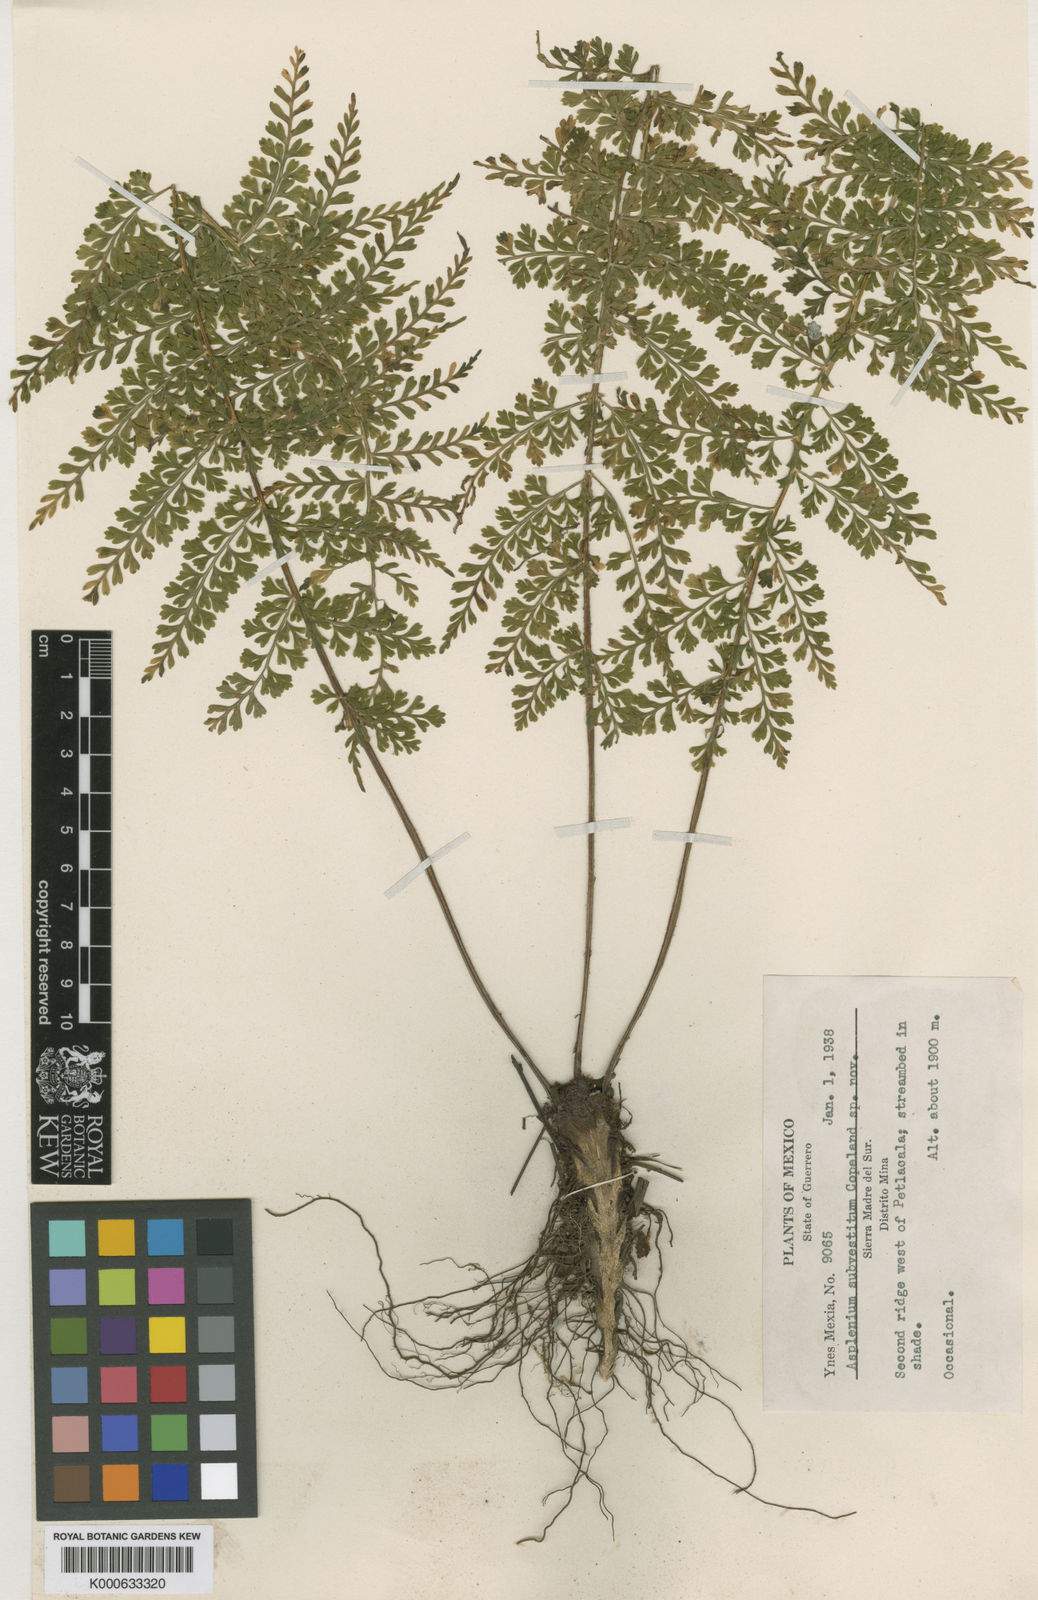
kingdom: Plantae
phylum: Tracheophyta
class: Polypodiopsida
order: Polypodiales
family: Aspleniaceae
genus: Asplenium
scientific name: Asplenium
